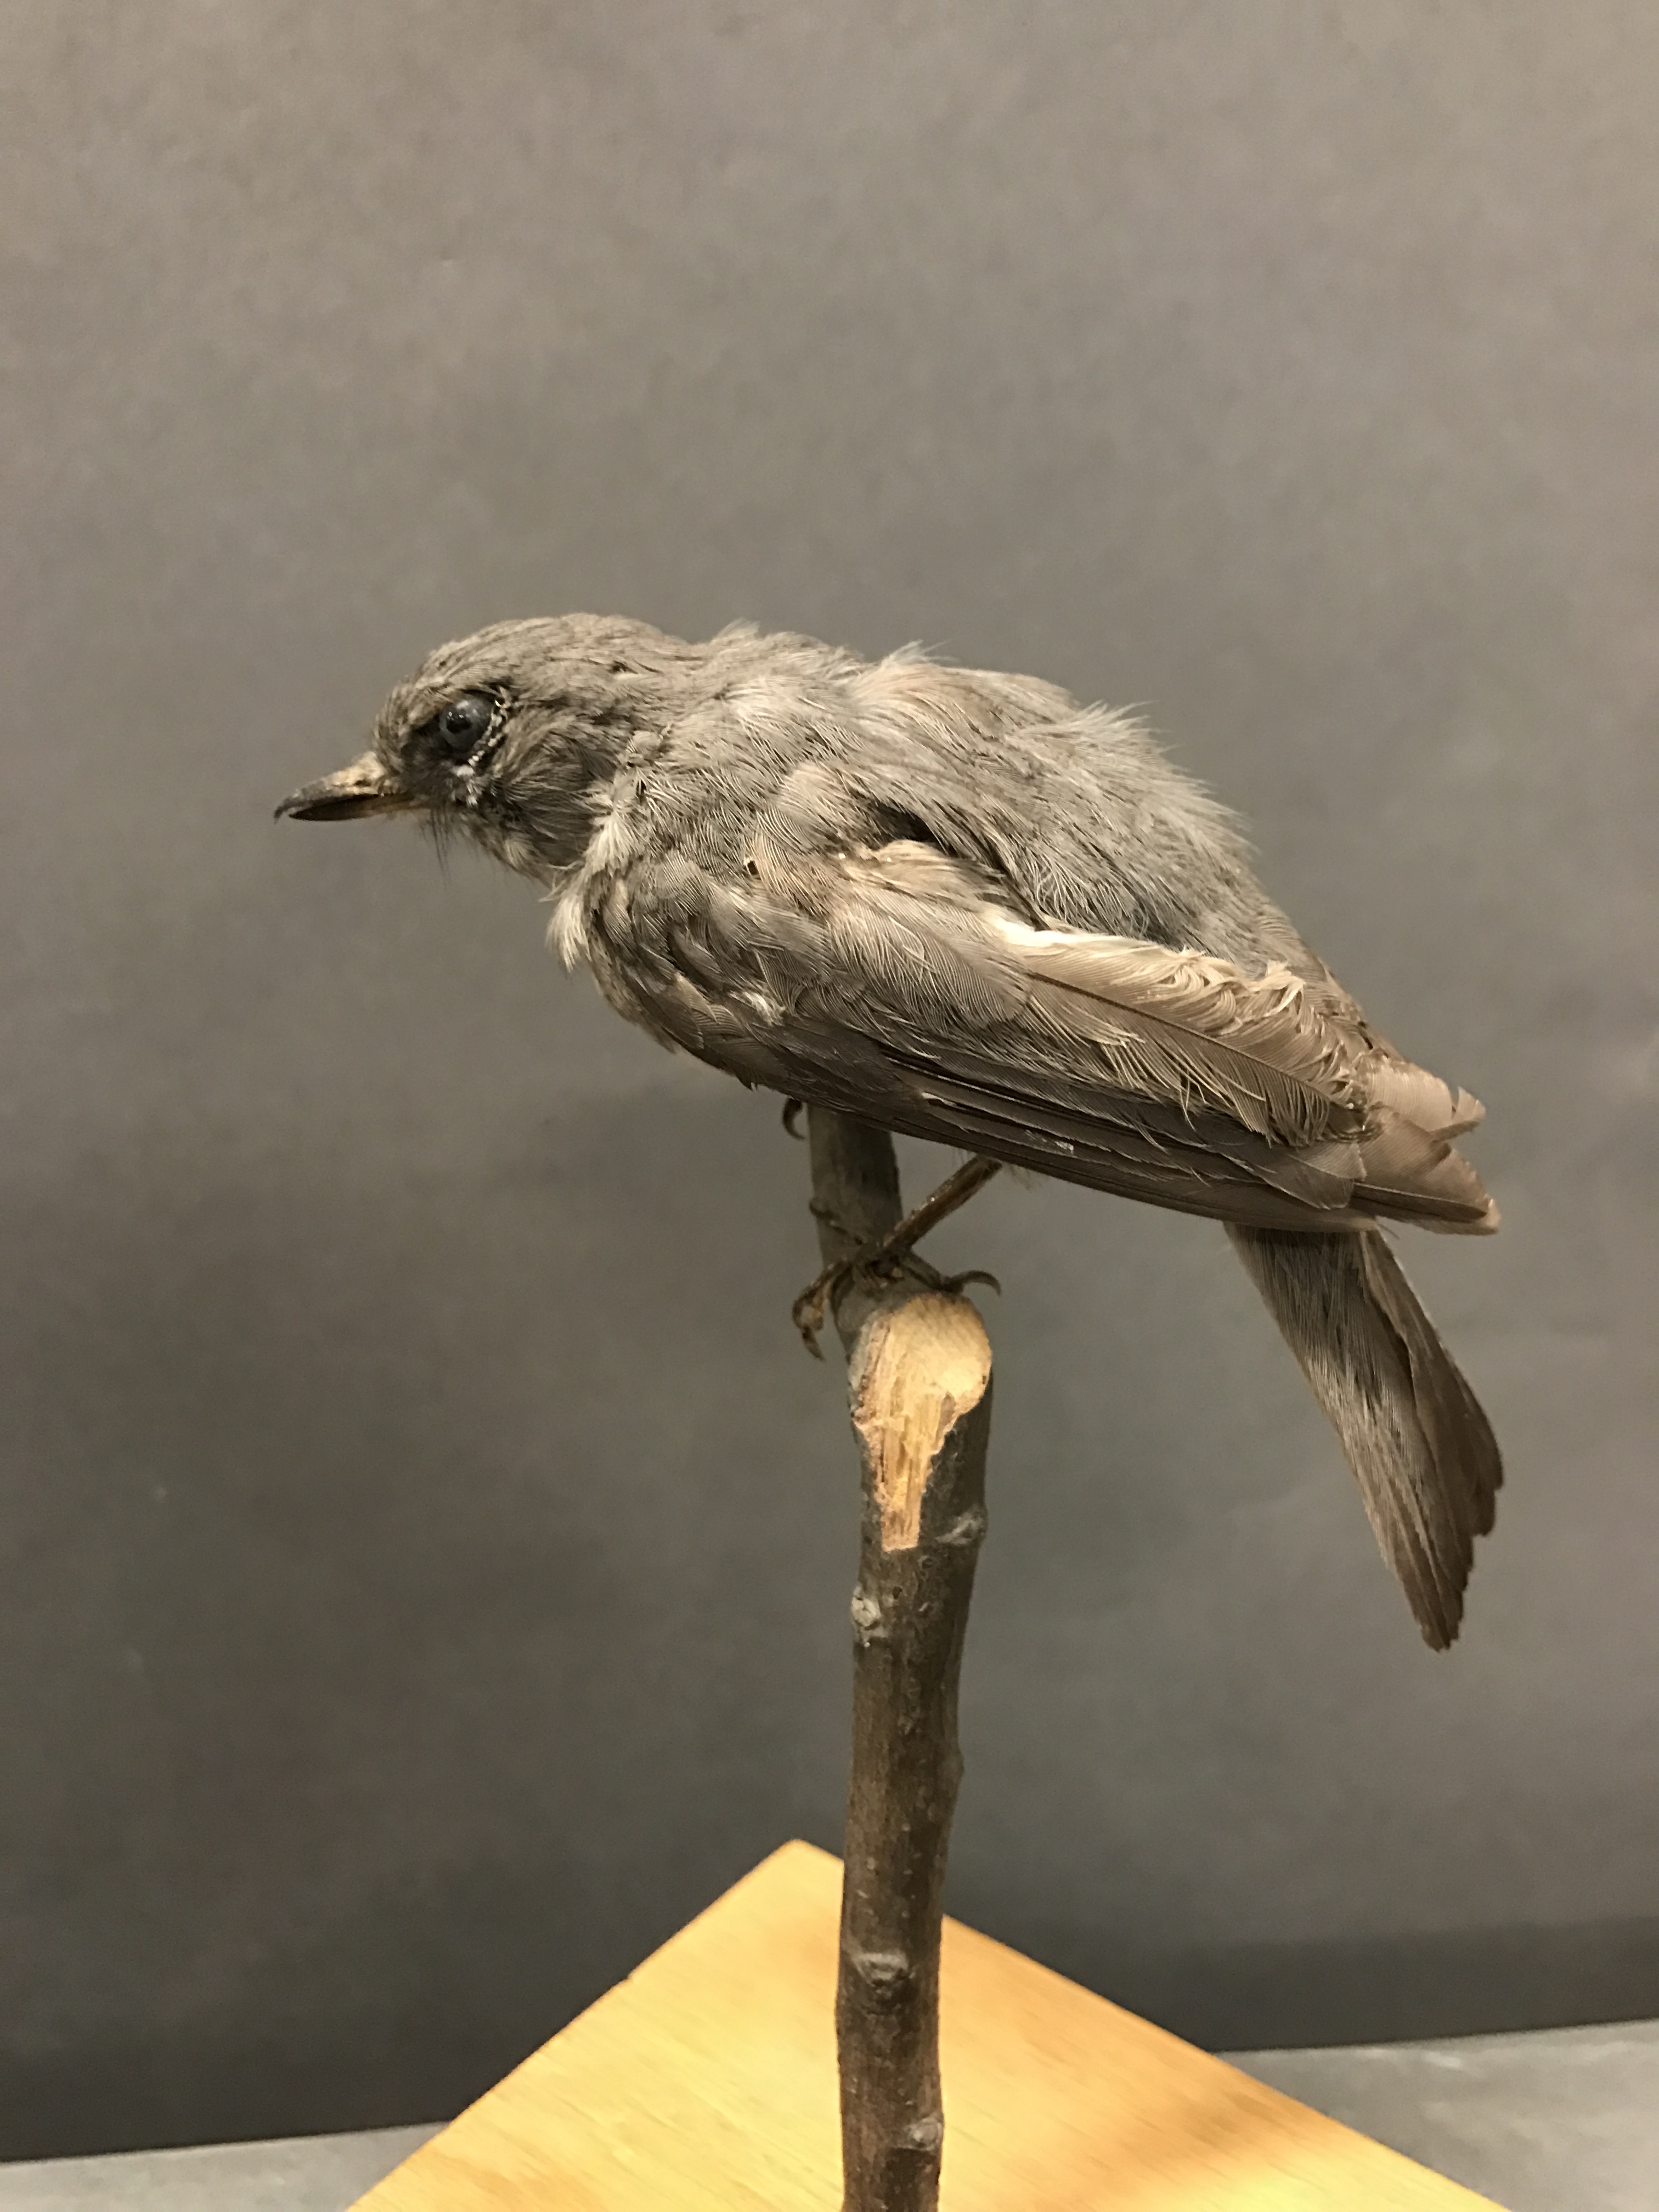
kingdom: Animalia
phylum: Chordata
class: Aves
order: Passeriformes
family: Muscicapidae
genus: Myioparus
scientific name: Myioparus griseigularis
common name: Grey-throated tit-flycatcher
